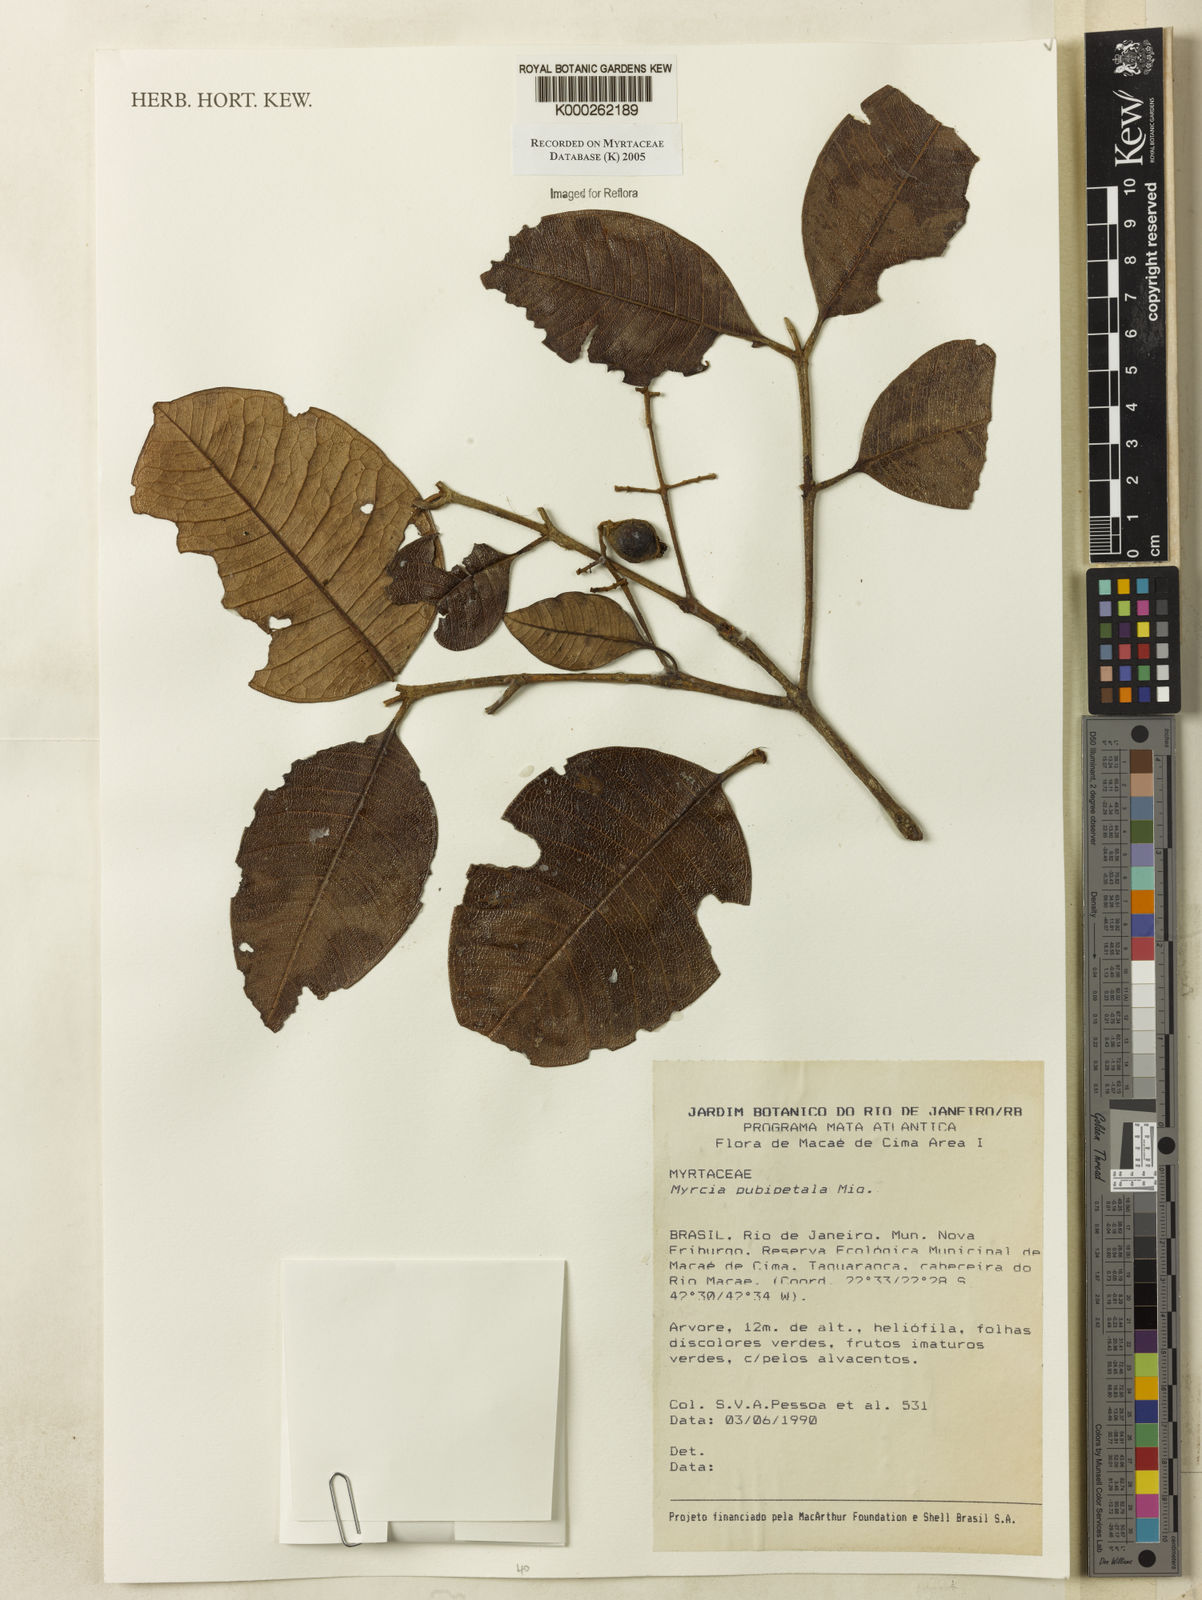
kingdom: Plantae
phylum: Tracheophyta
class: Magnoliopsida
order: Myrtales
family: Myrtaceae
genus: Myrcia
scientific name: Myrcia pubipetala
